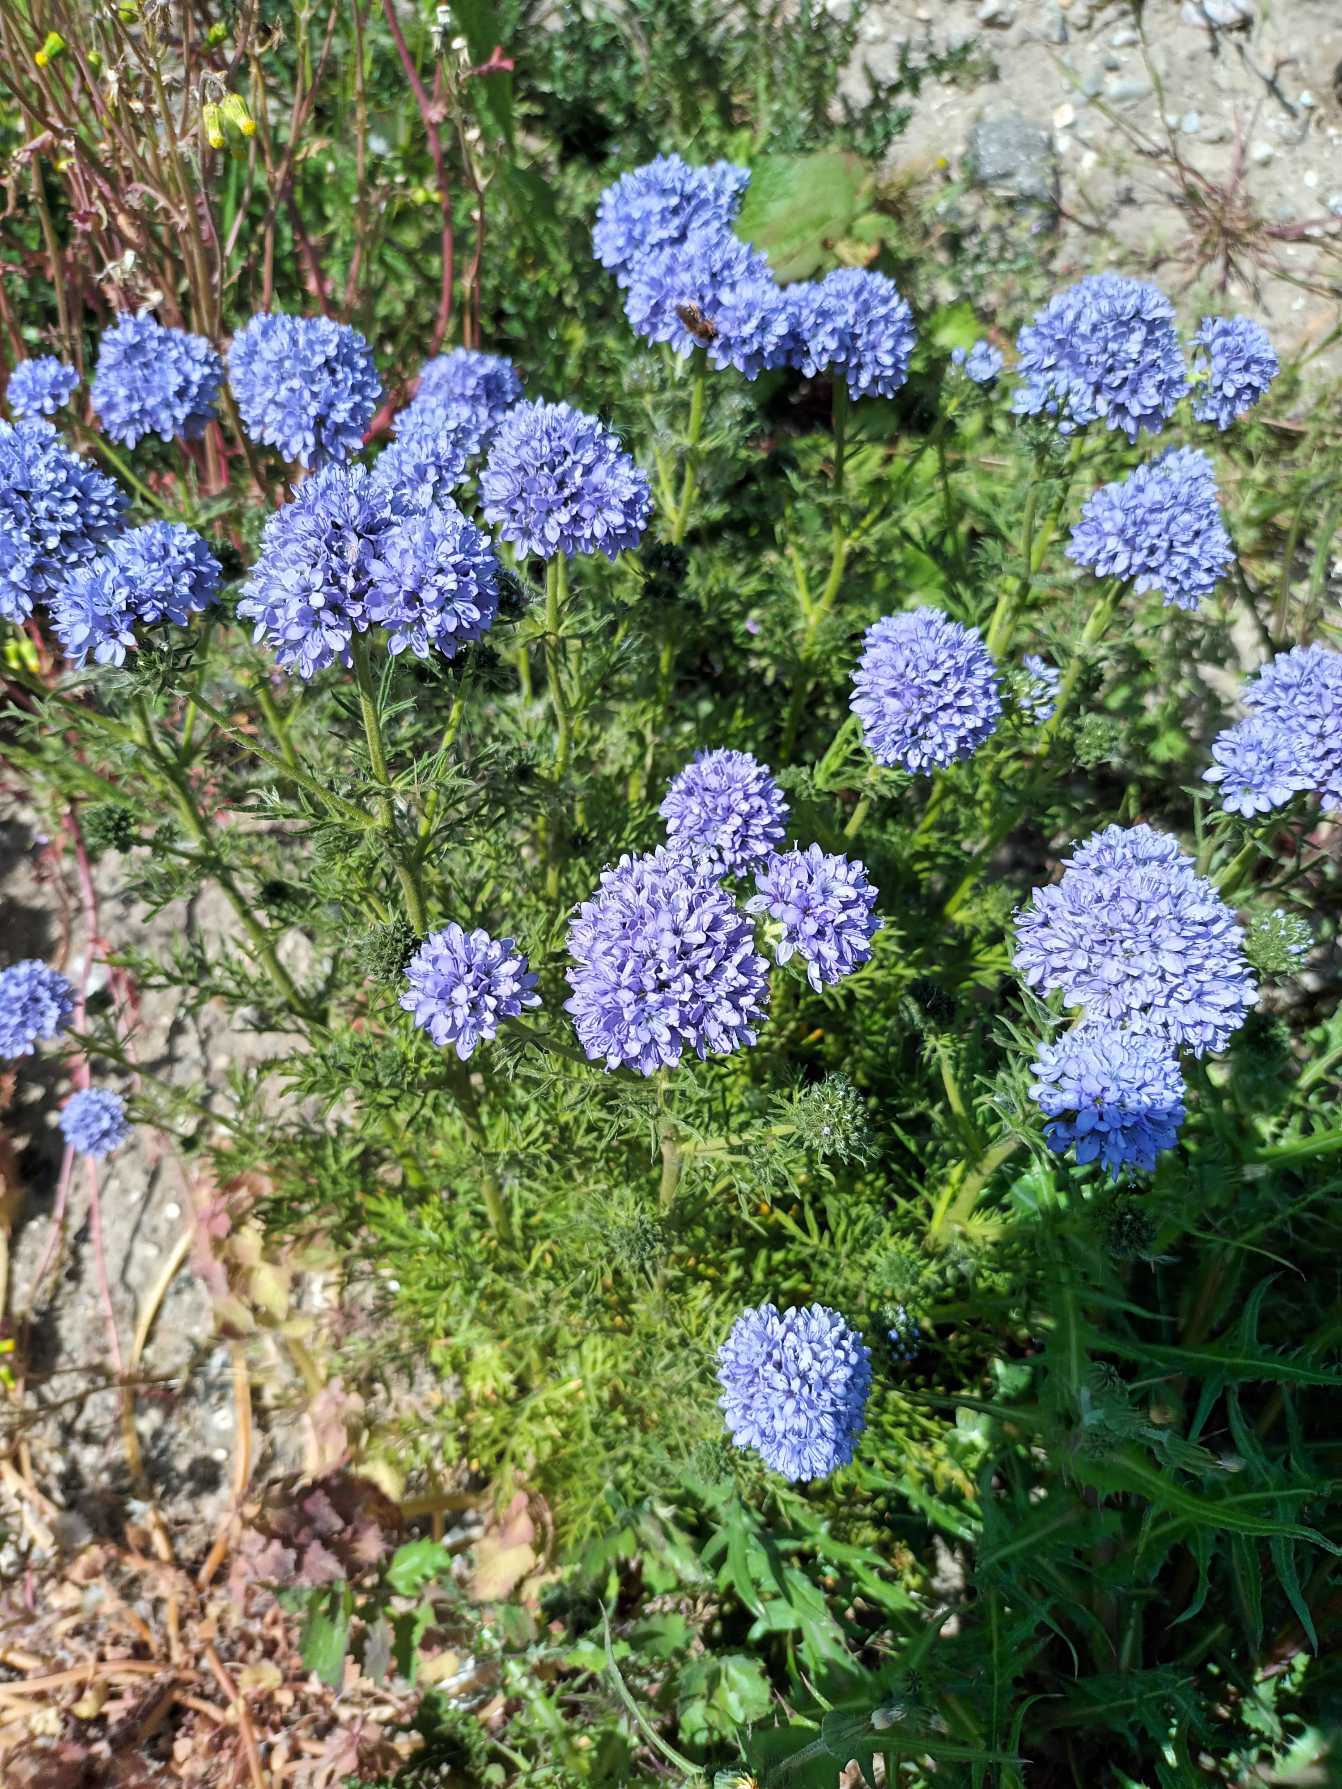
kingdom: Plantae
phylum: Tracheophyta
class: Magnoliopsida
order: Ericales
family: Polemoniaceae
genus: Gilia
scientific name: Gilia achilleifolia
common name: Fjer-blåhoved
